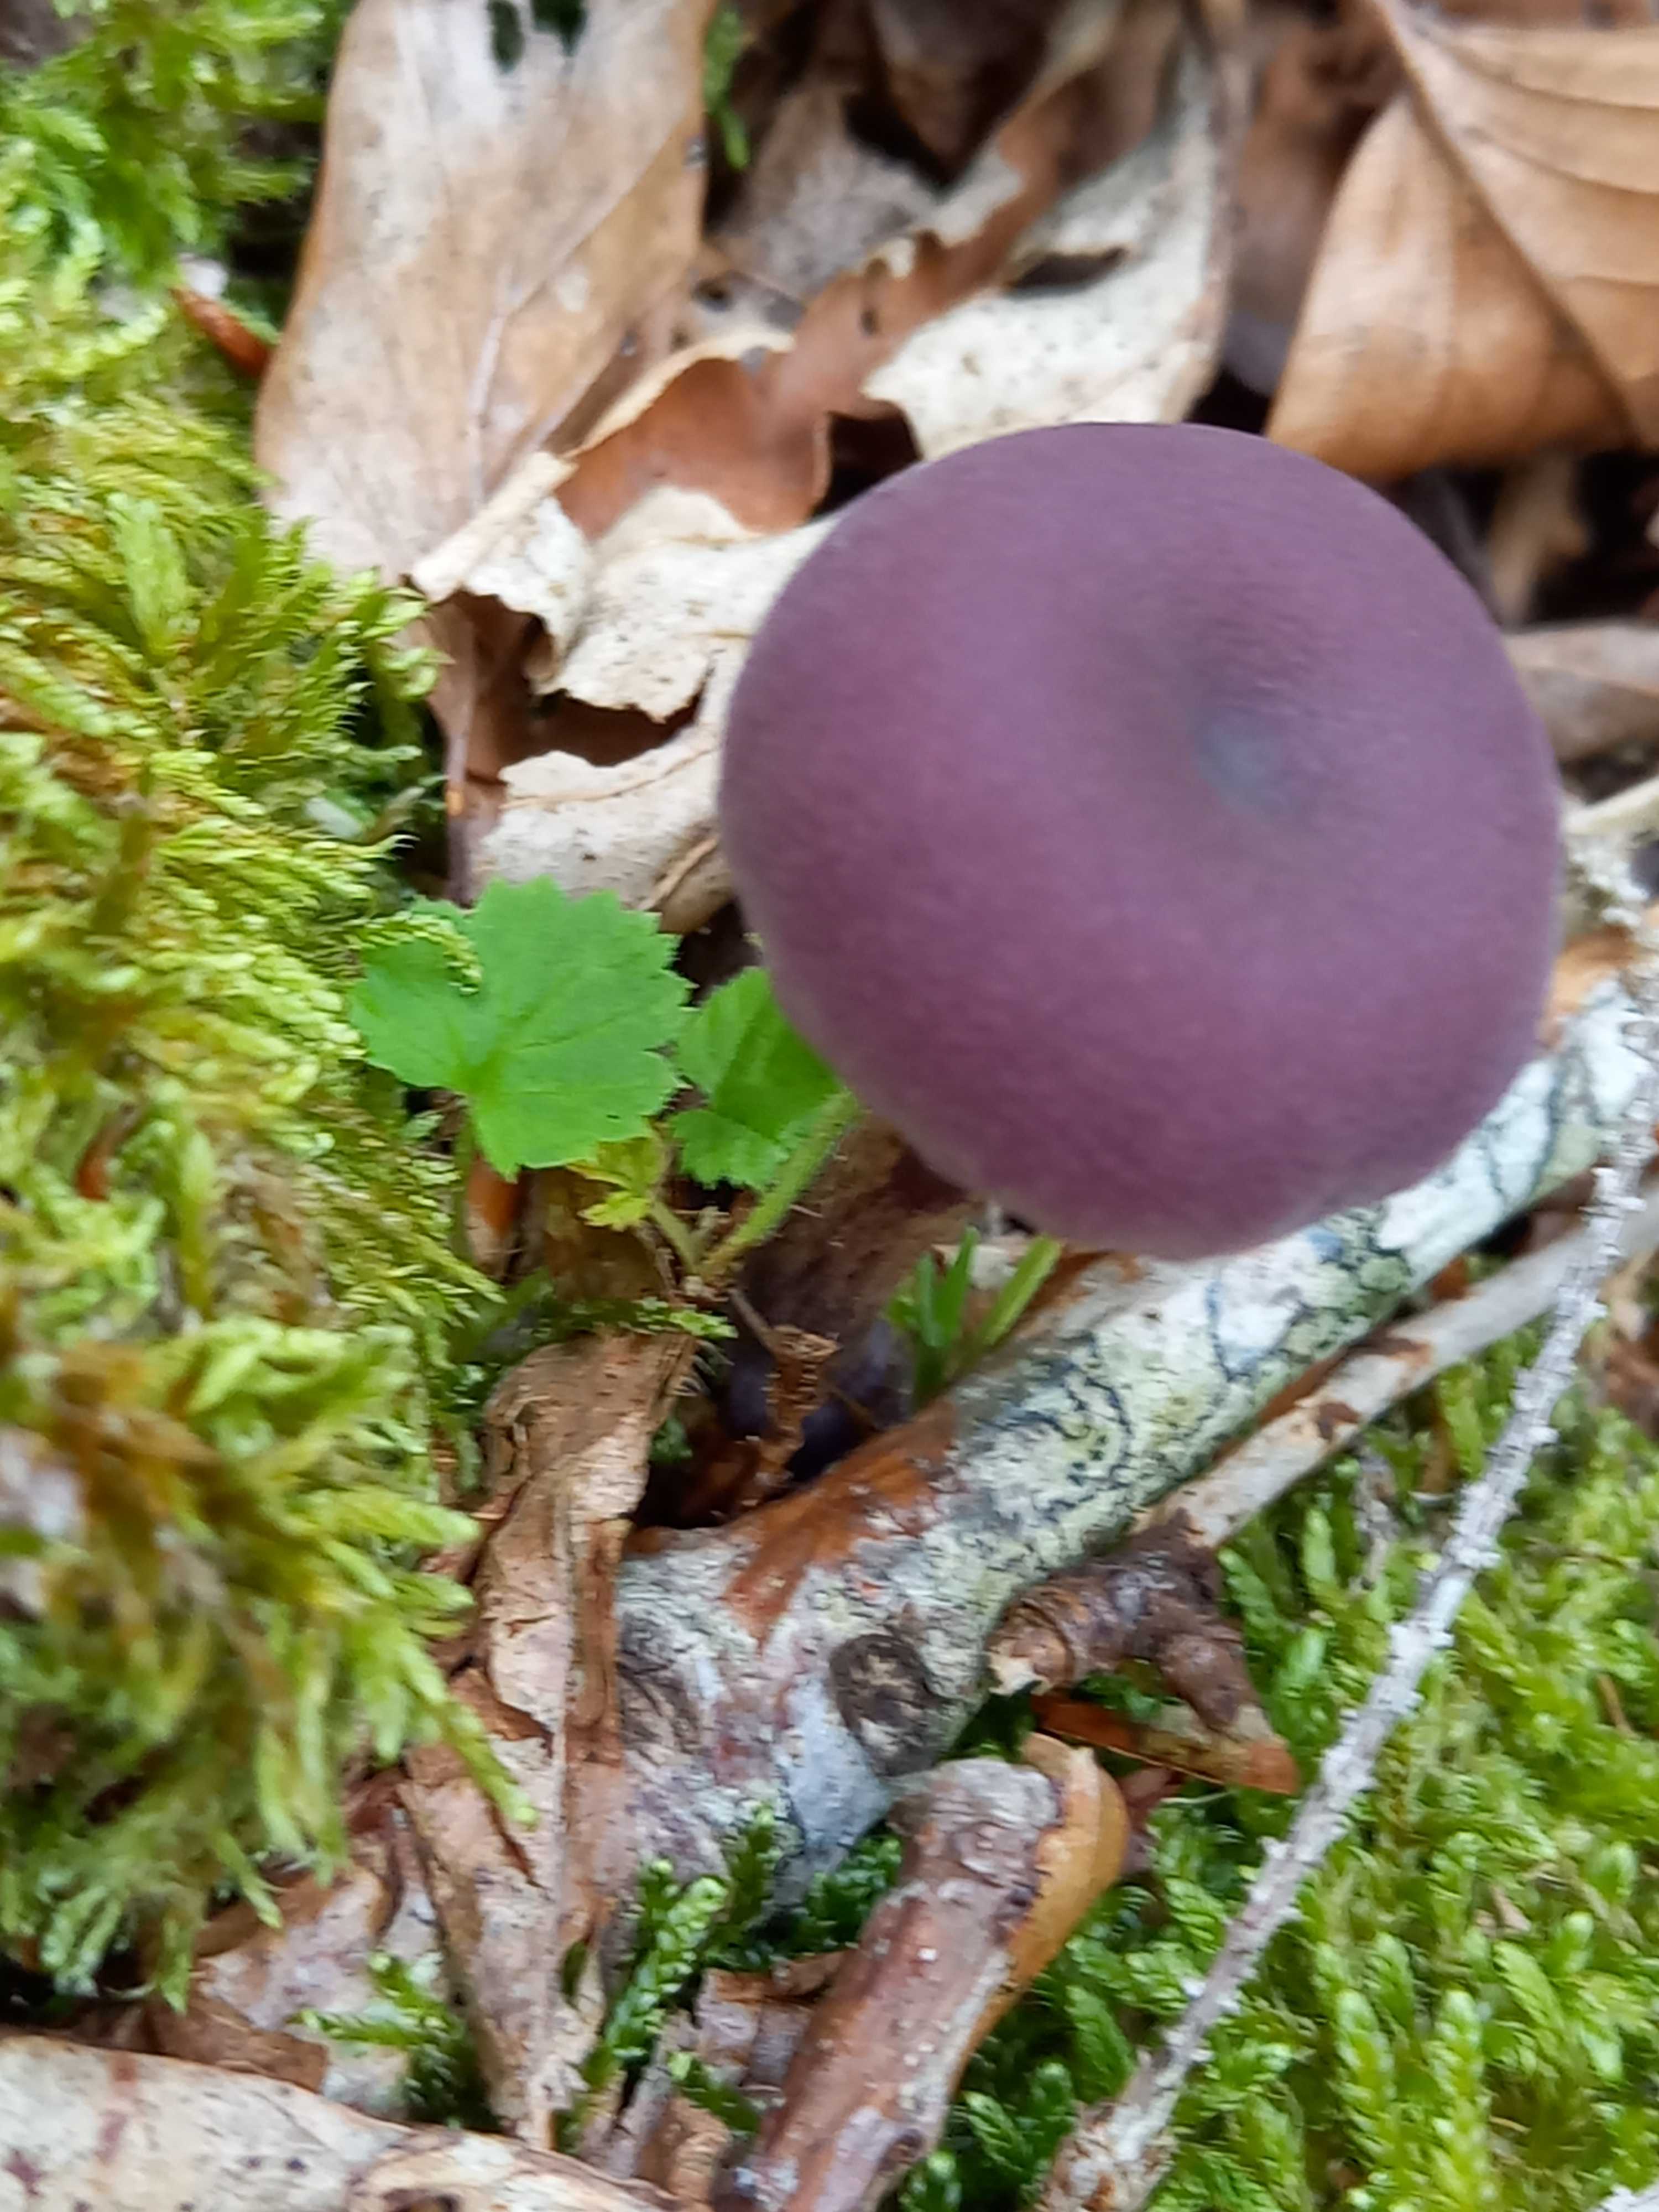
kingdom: Fungi
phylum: Basidiomycota
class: Agaricomycetes
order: Agaricales
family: Hydnangiaceae
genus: Laccaria
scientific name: Laccaria amethystina
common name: violet ametysthat
